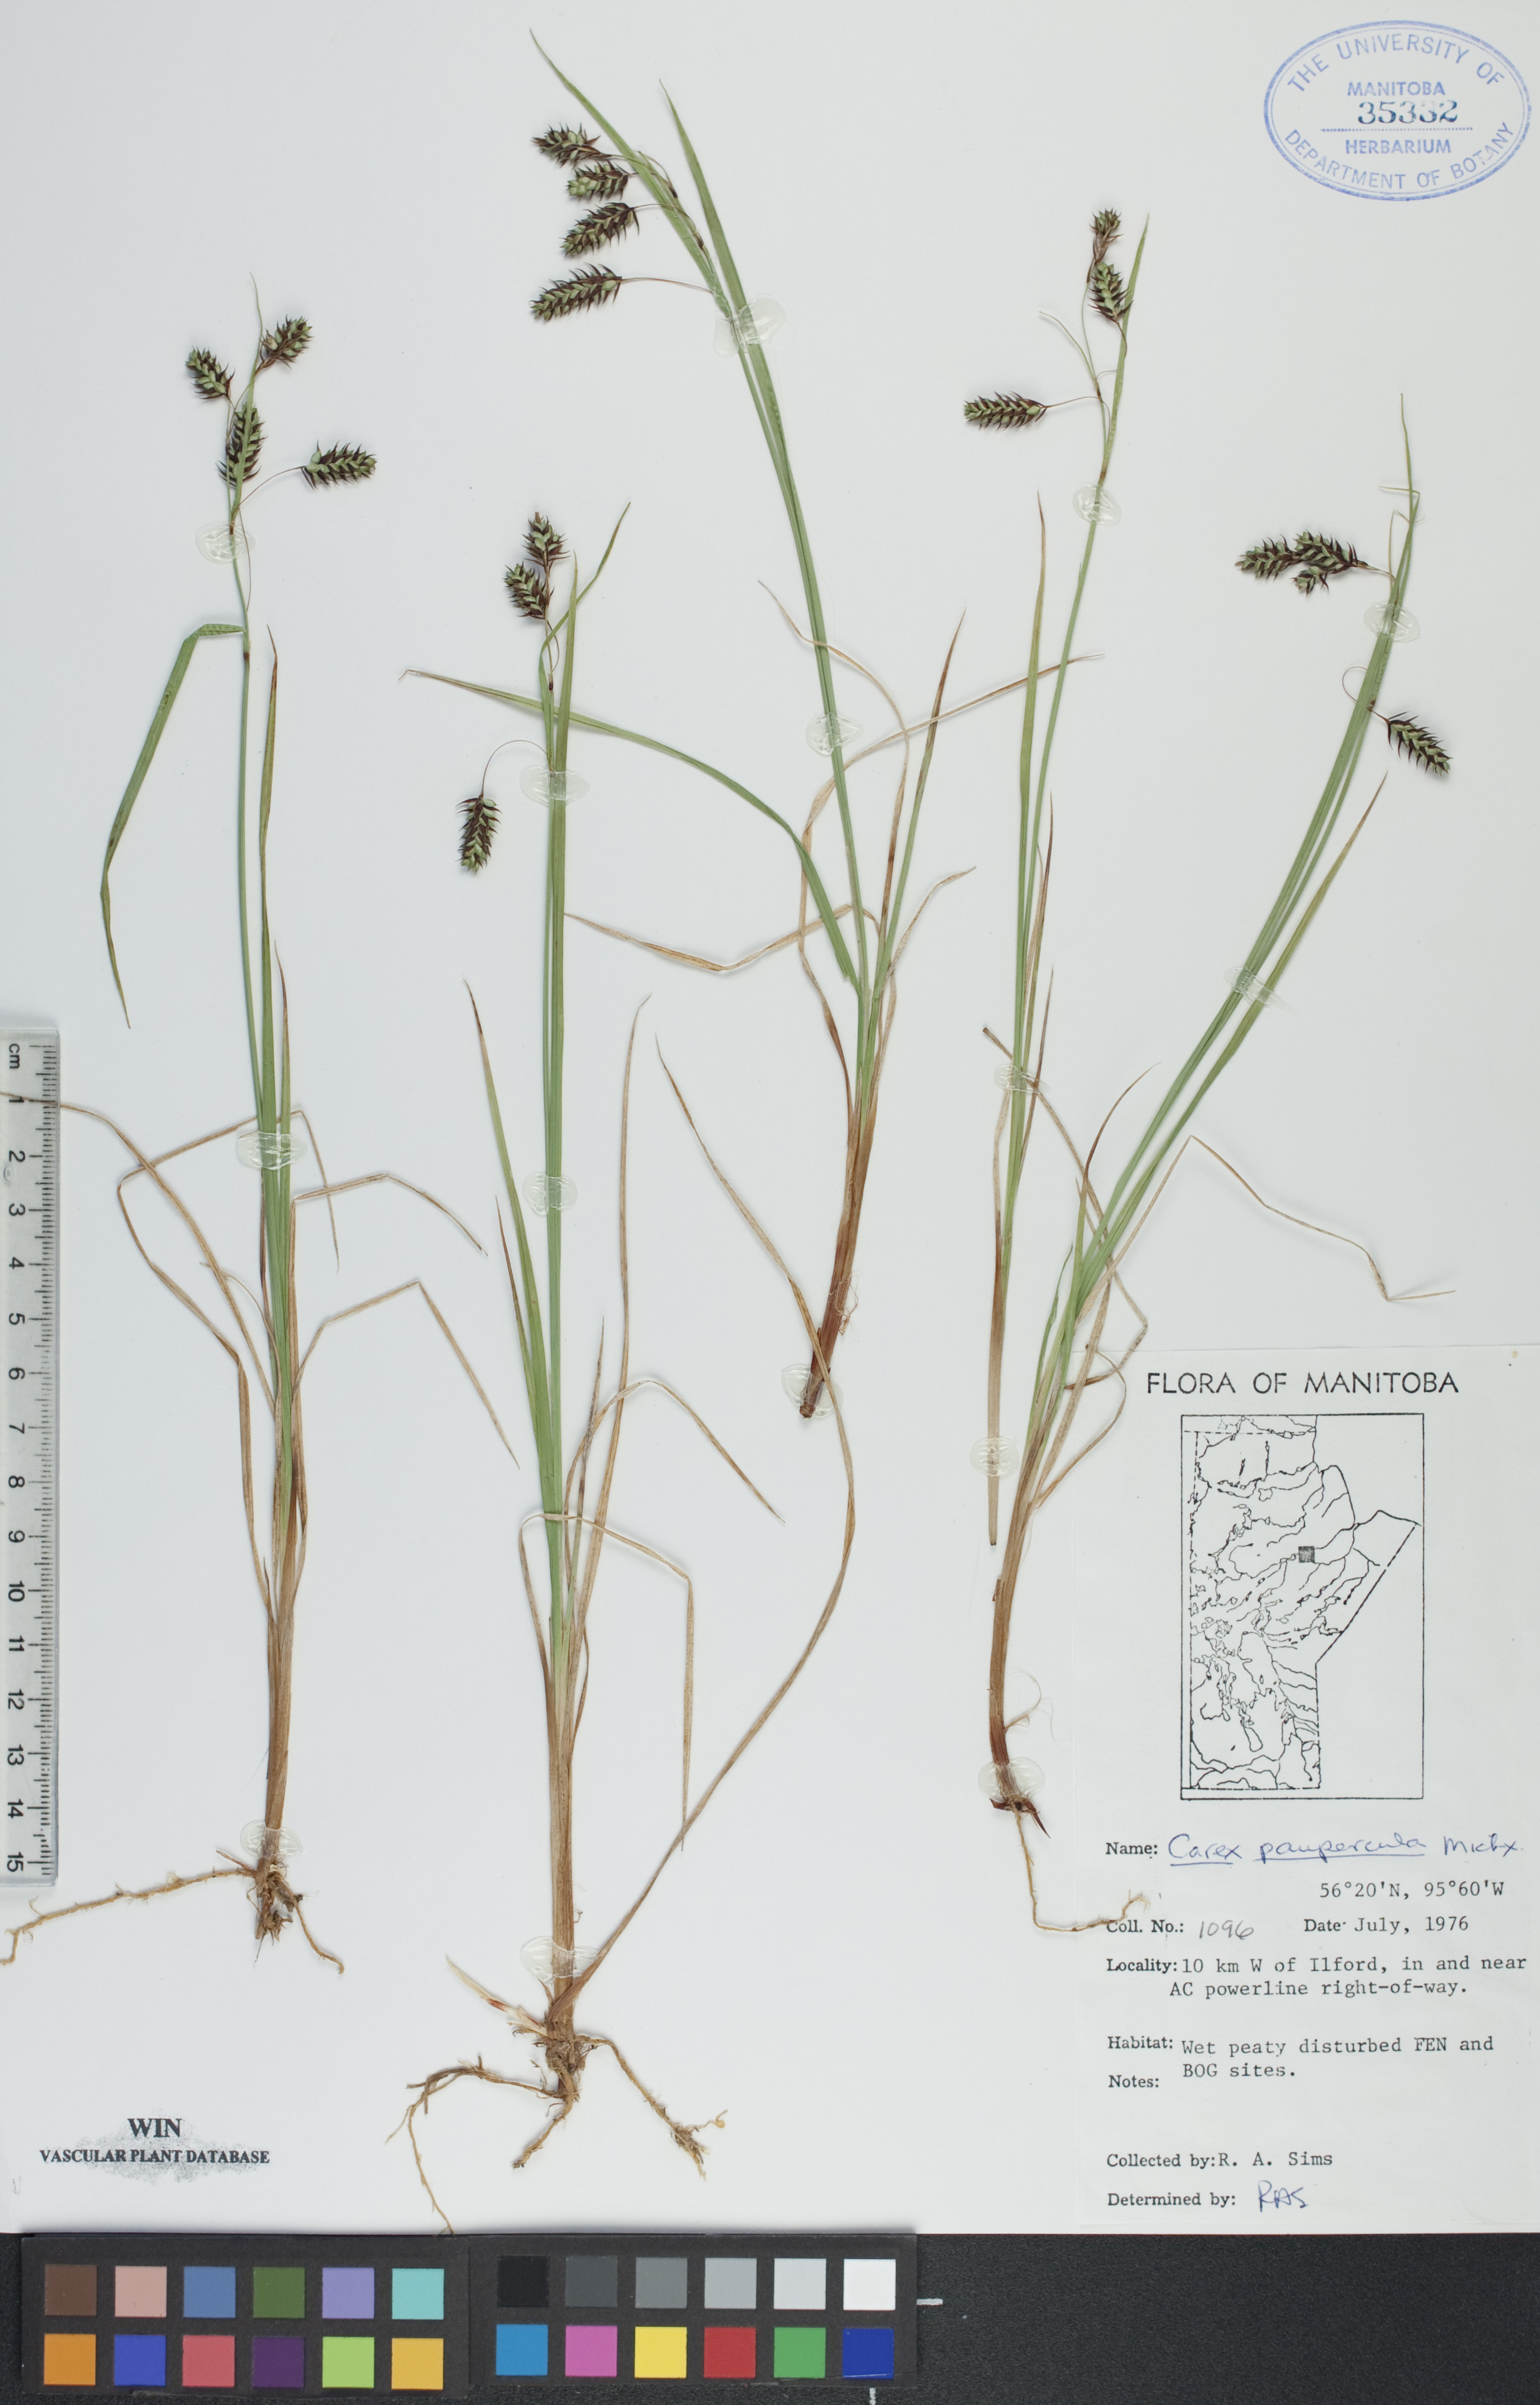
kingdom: Plantae
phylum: Tracheophyta
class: Liliopsida
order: Poales
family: Cyperaceae
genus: Carex
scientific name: Carex magellanica
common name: Bog sedge
